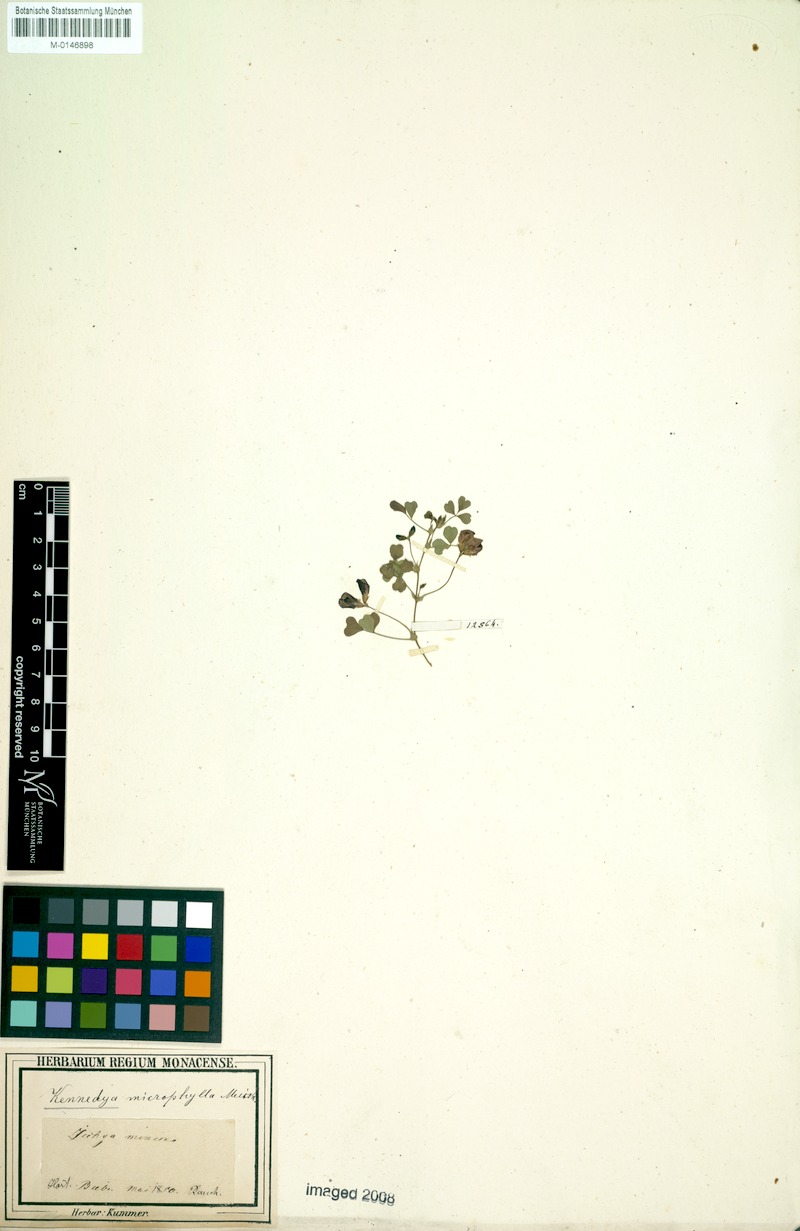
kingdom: Plantae
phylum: Tracheophyta
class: Magnoliopsida
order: Fabales
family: Fabaceae
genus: Kennedia
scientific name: Kennedia microphylla
